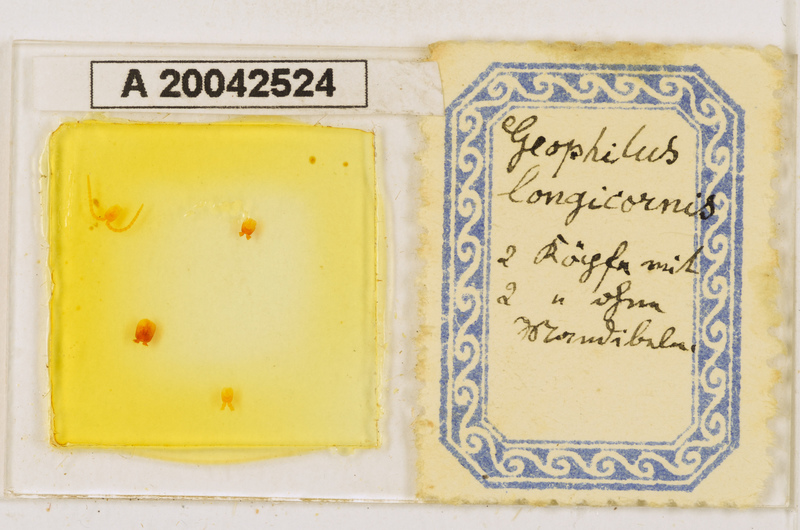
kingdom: Animalia
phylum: Arthropoda
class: Chilopoda
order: Geophilomorpha
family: Geophilidae
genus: Geophilus
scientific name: Geophilus flavus
